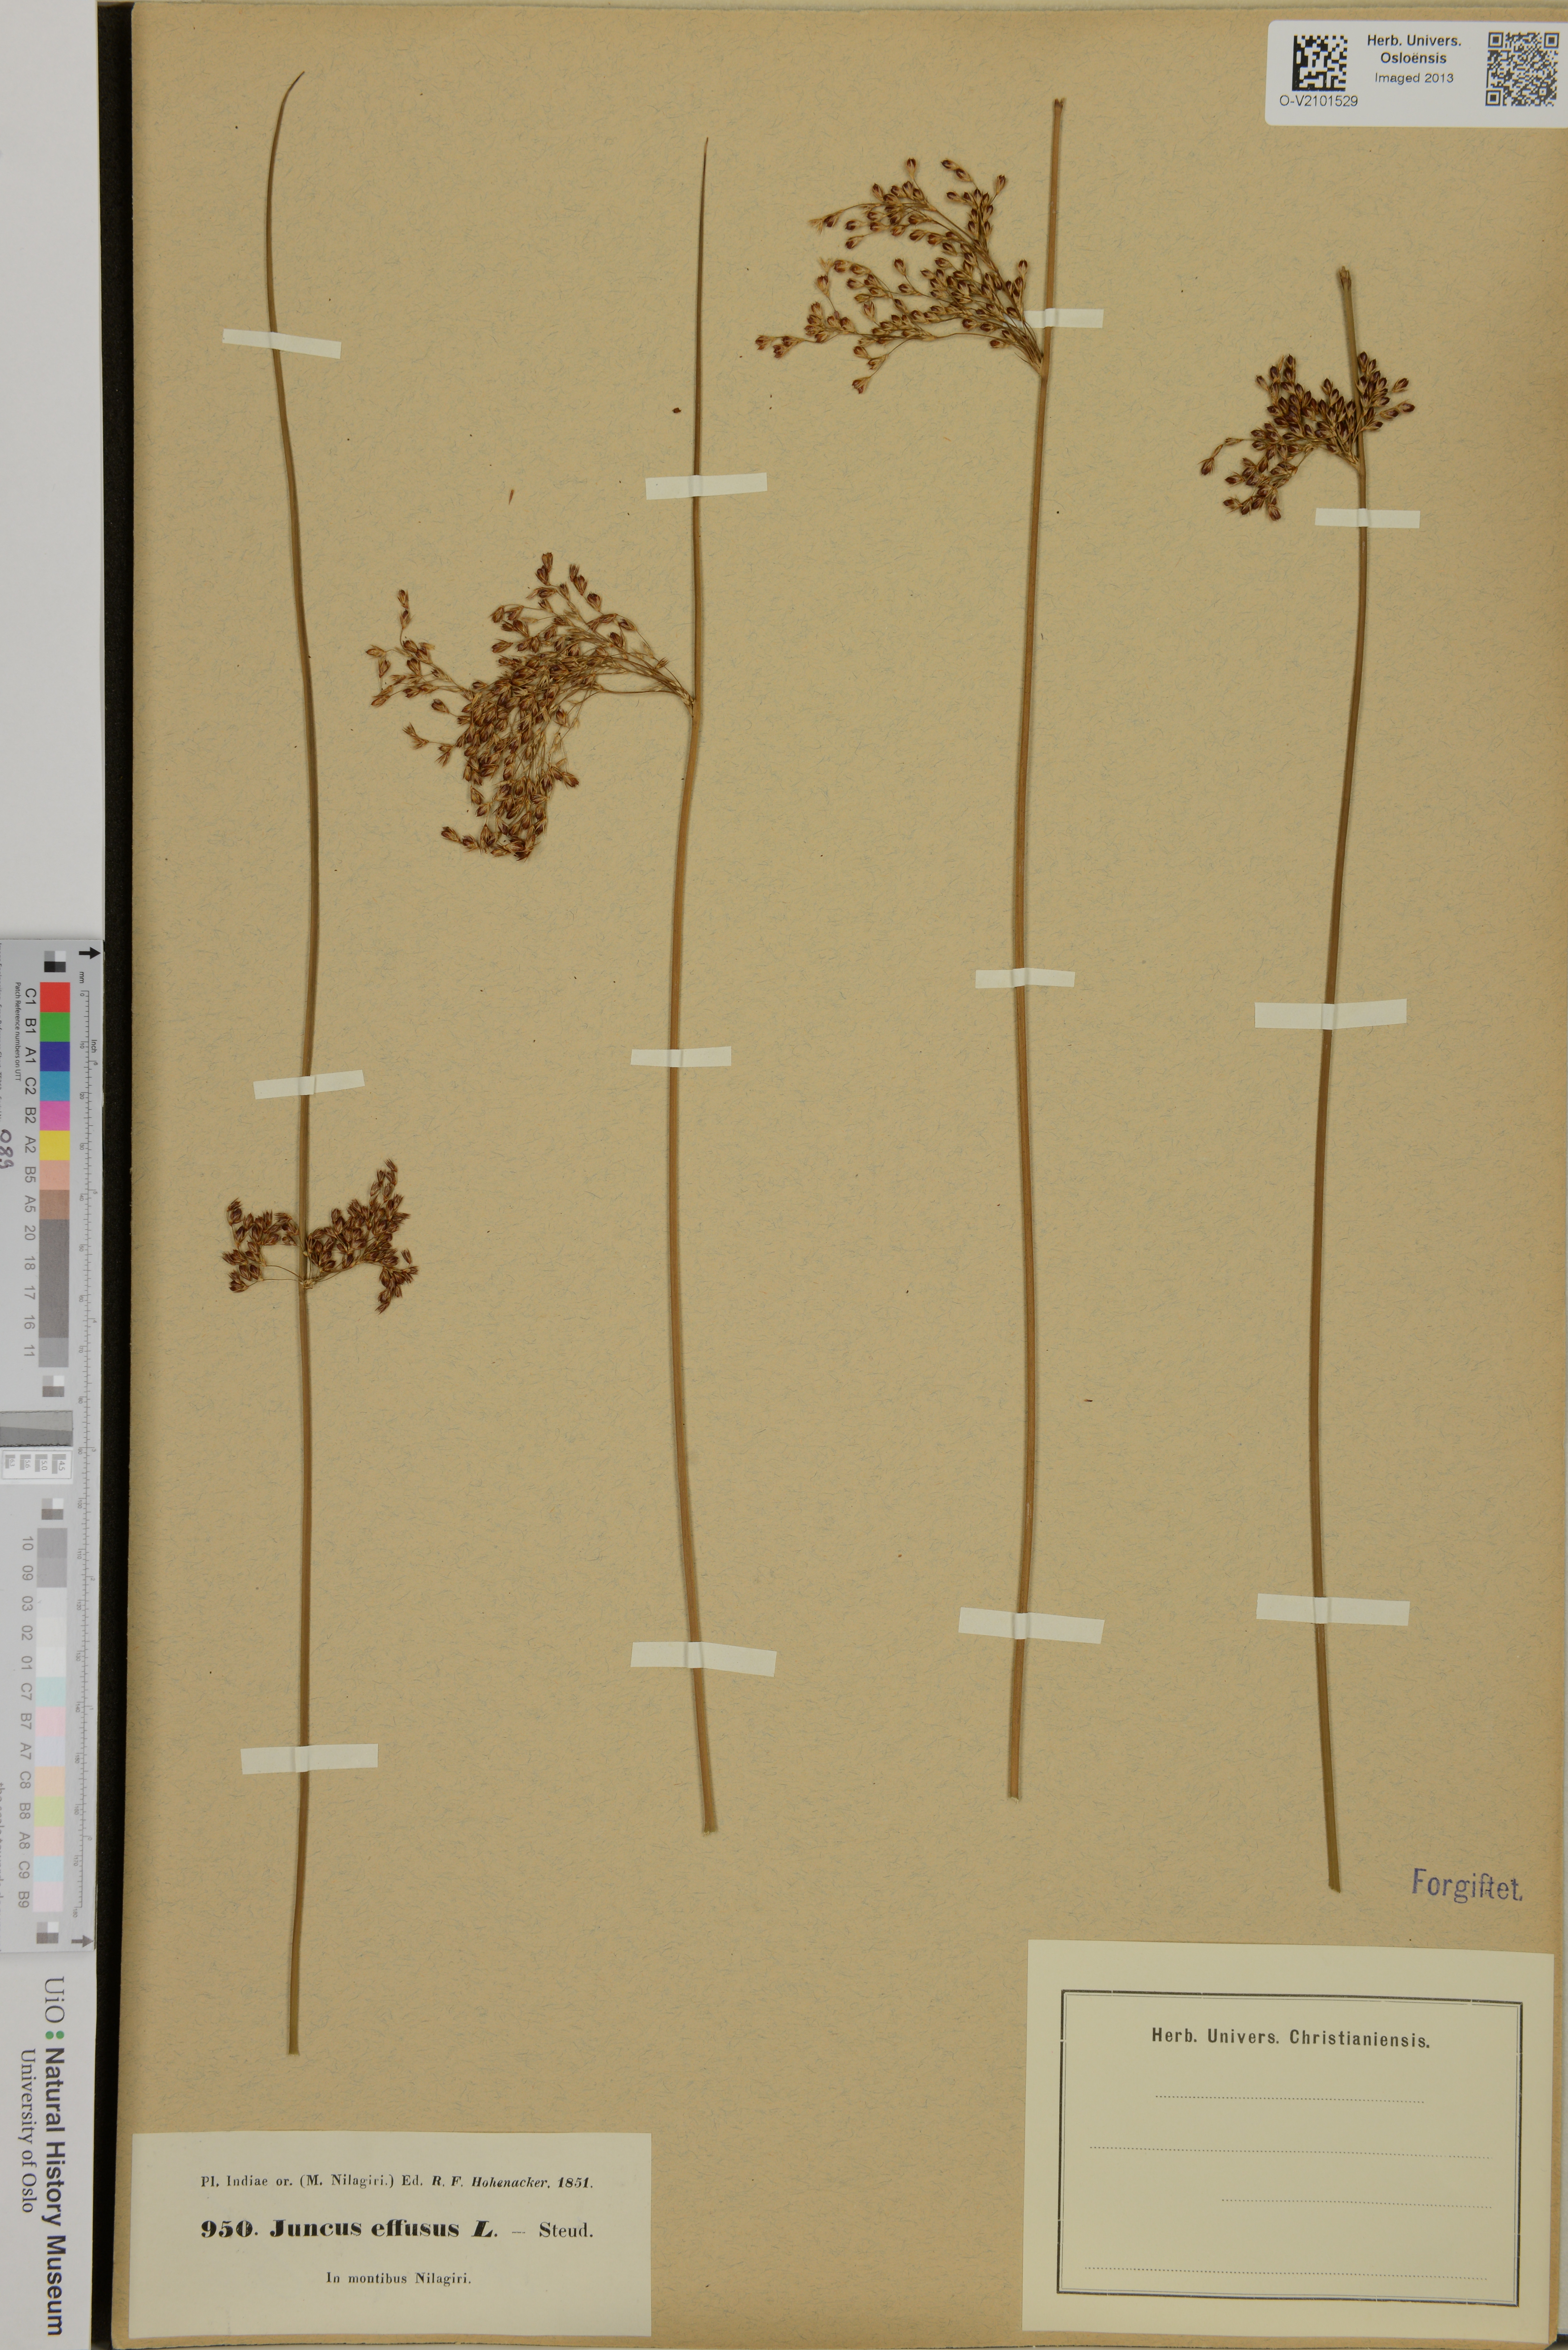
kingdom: Plantae
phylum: Tracheophyta
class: Liliopsida
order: Poales
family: Juncaceae
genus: Juncus
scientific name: Juncus effusus
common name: Soft rush
